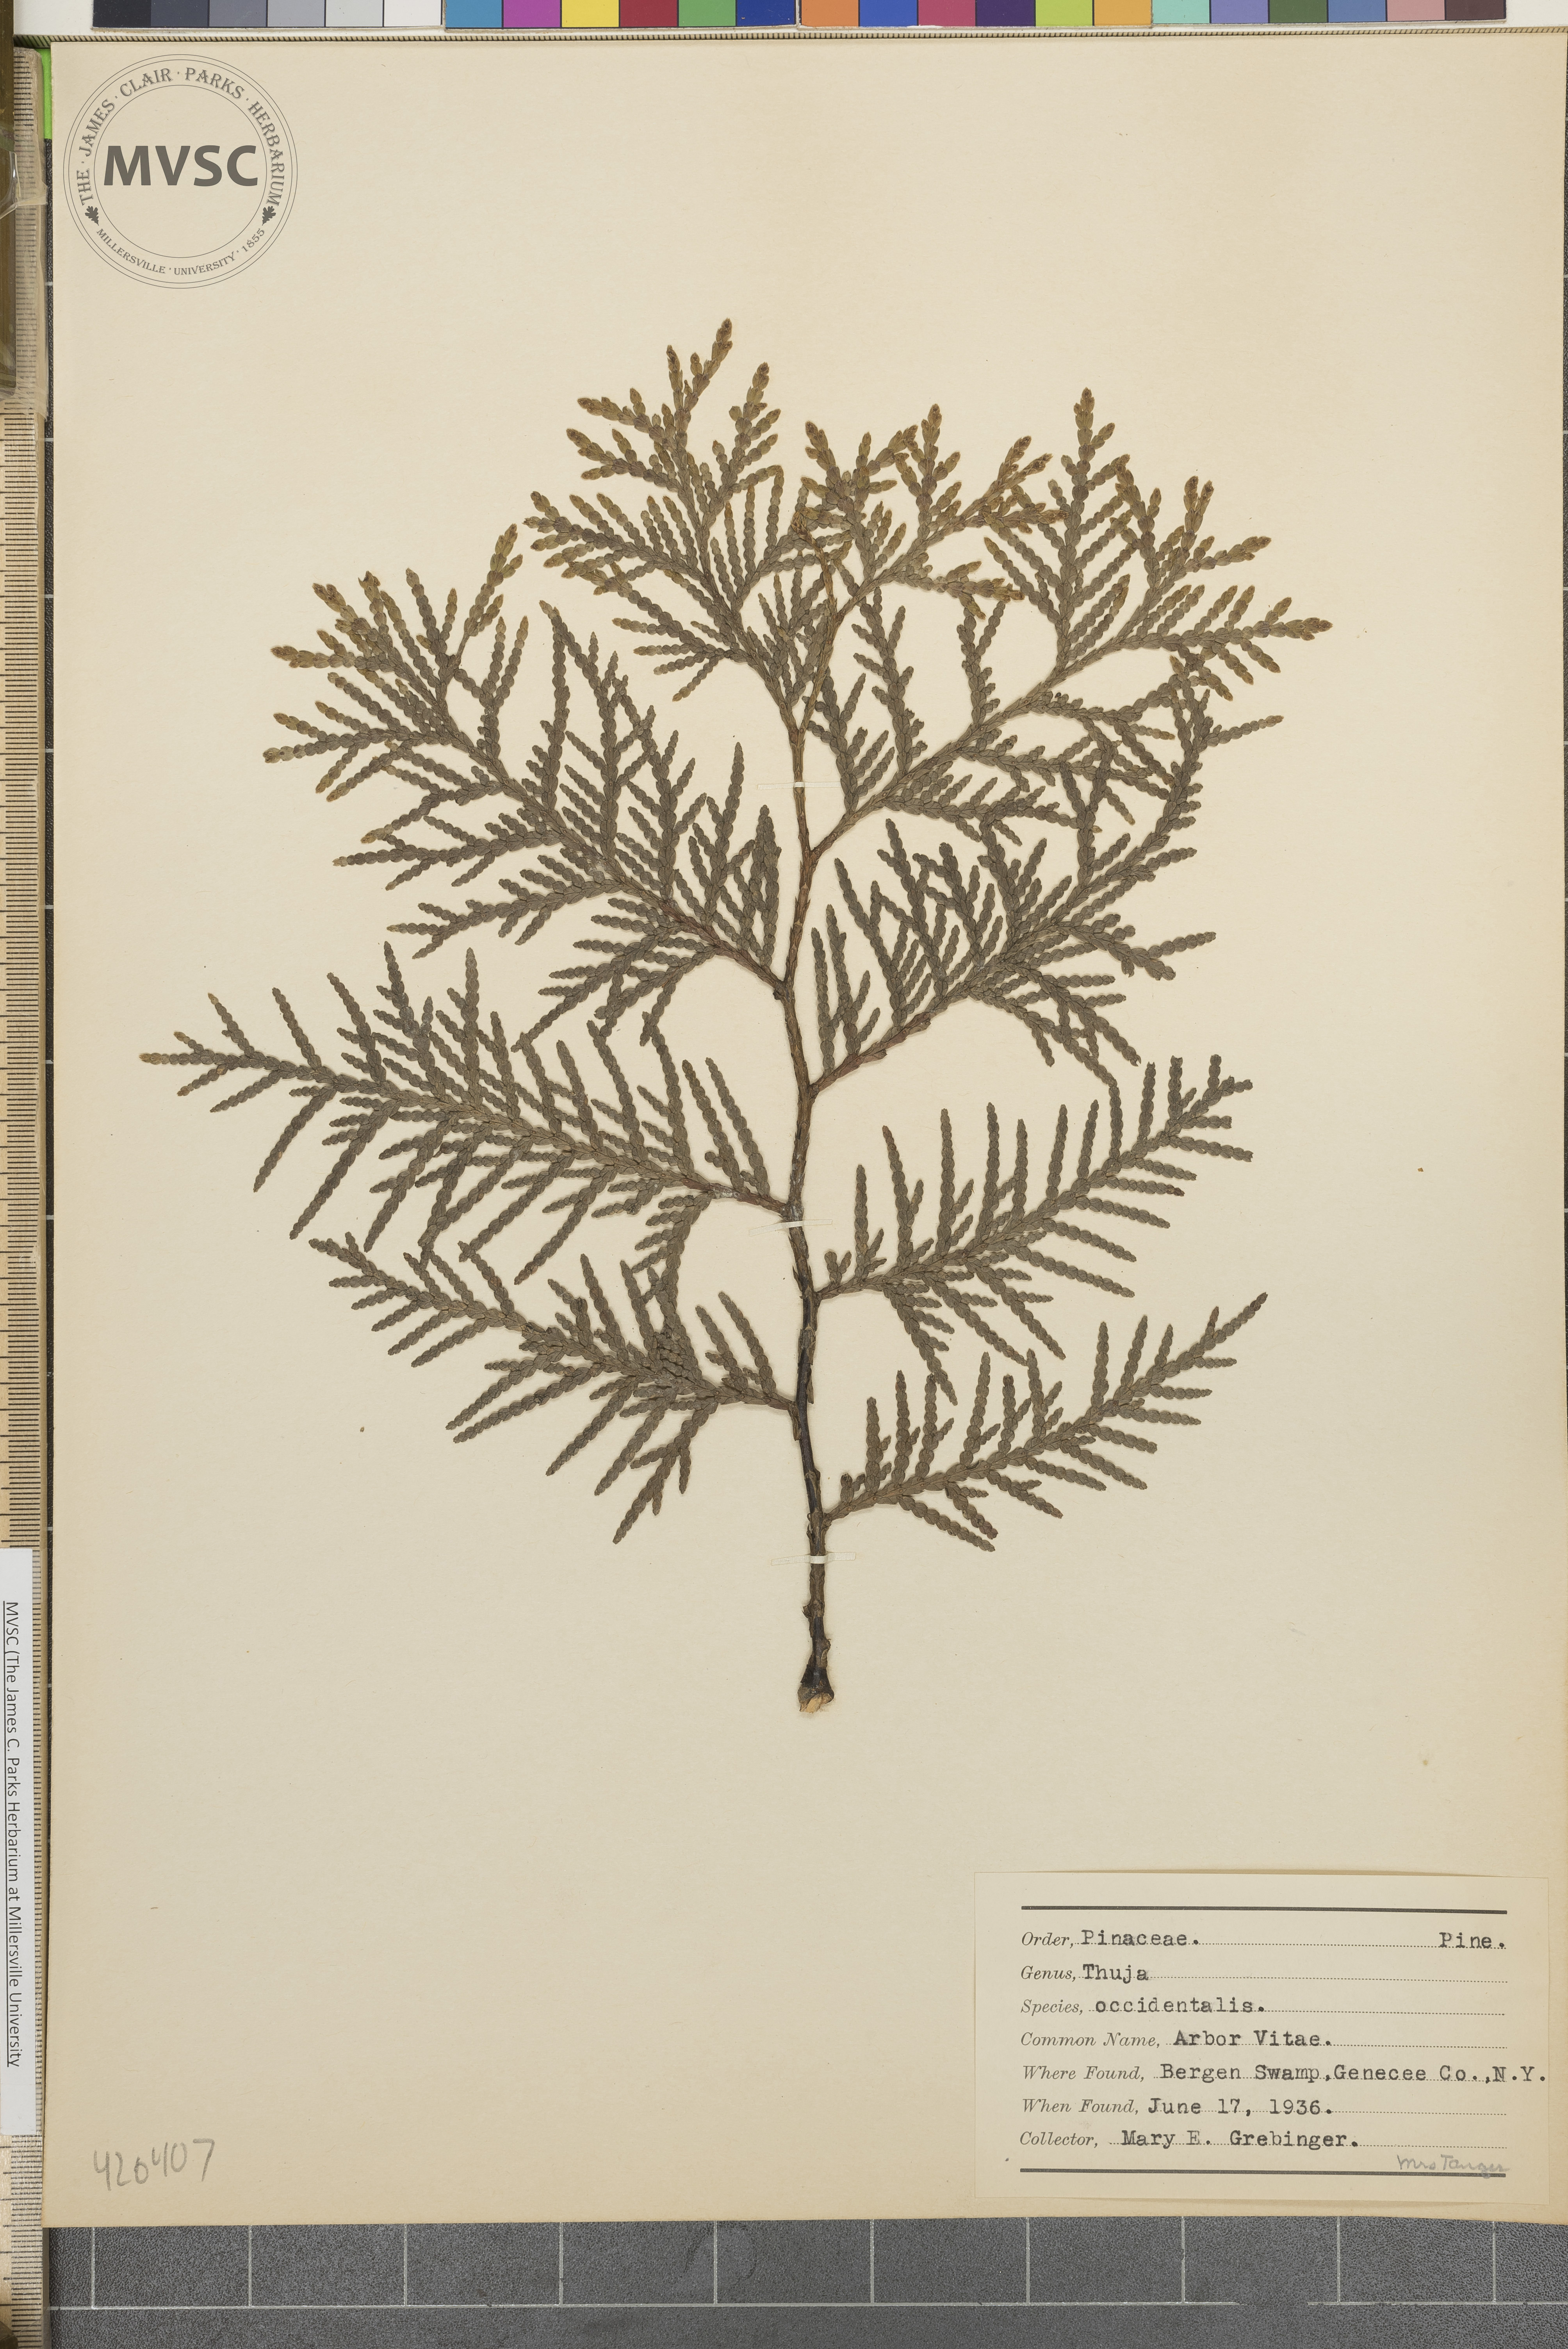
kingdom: Plantae
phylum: Tracheophyta
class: Pinopsida
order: Pinales
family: Cupressaceae
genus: Thuja
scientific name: Thuja occidentalis
